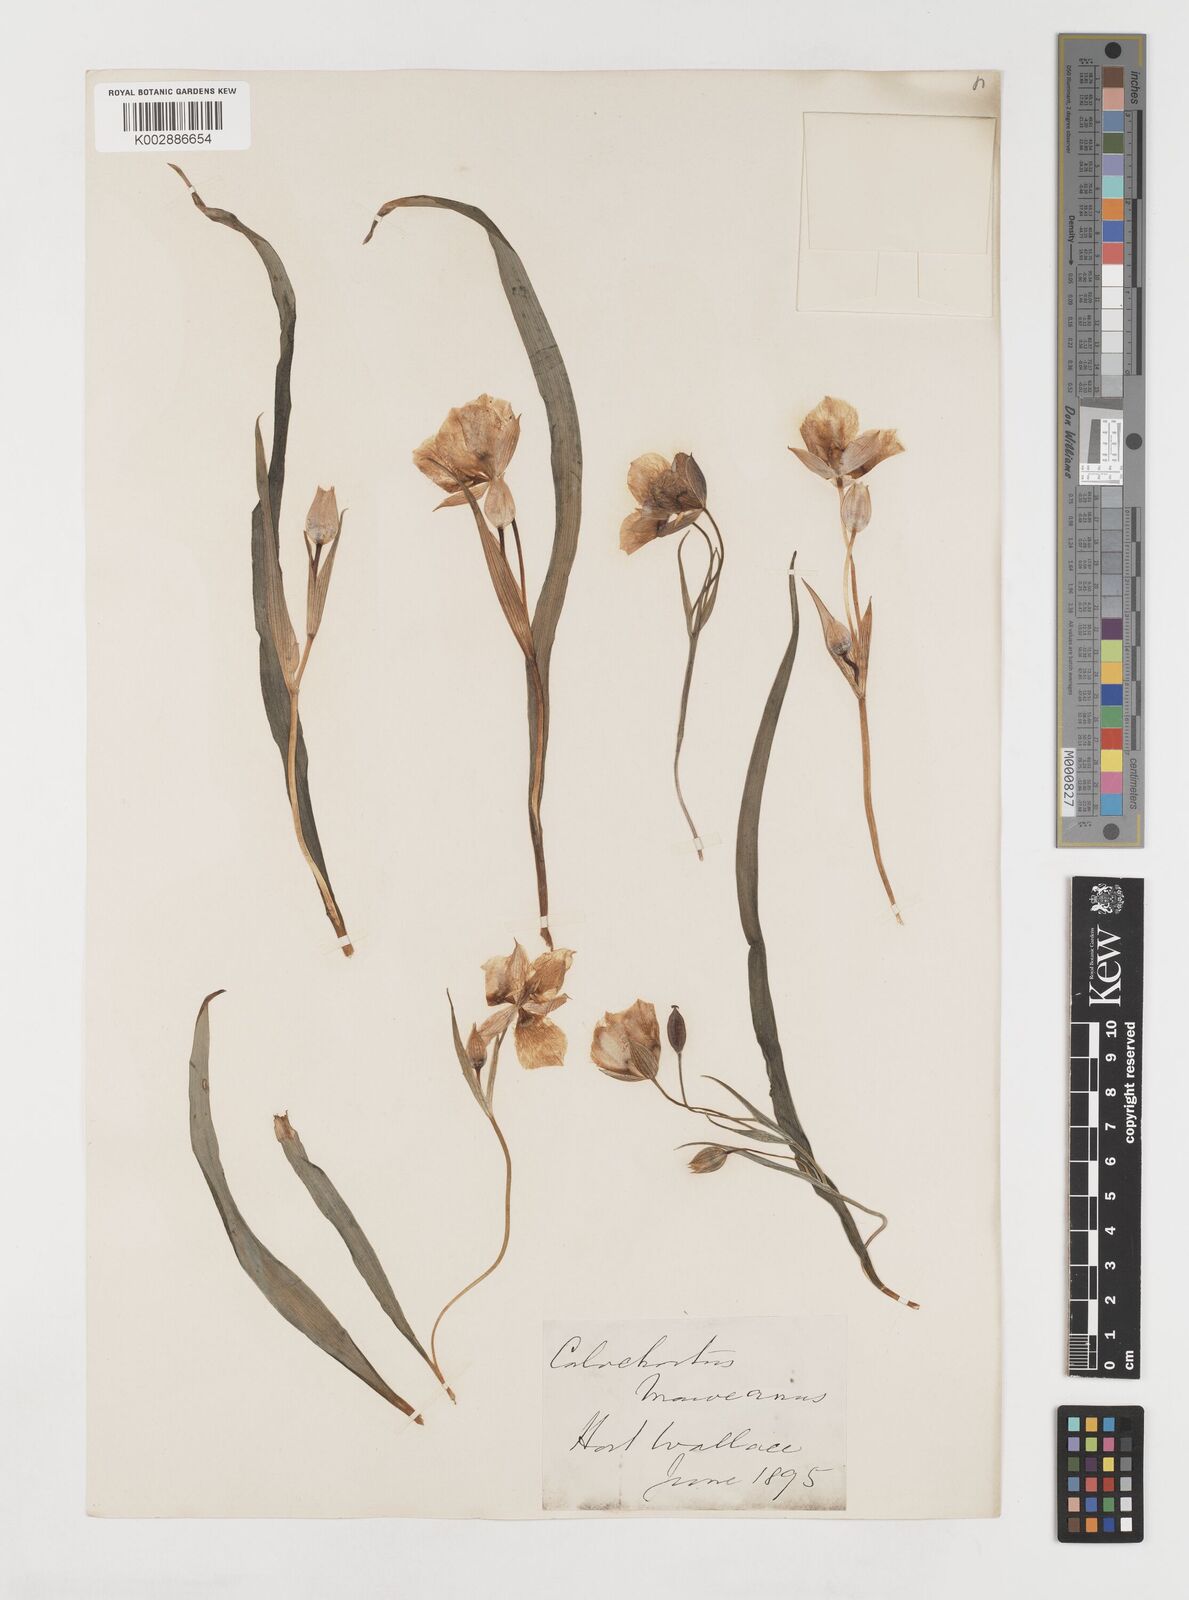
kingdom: Plantae
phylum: Tracheophyta
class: Liliopsida
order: Liliales
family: Liliaceae
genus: Calochortus
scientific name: Calochortus tolmiei
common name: Pussy-ears
